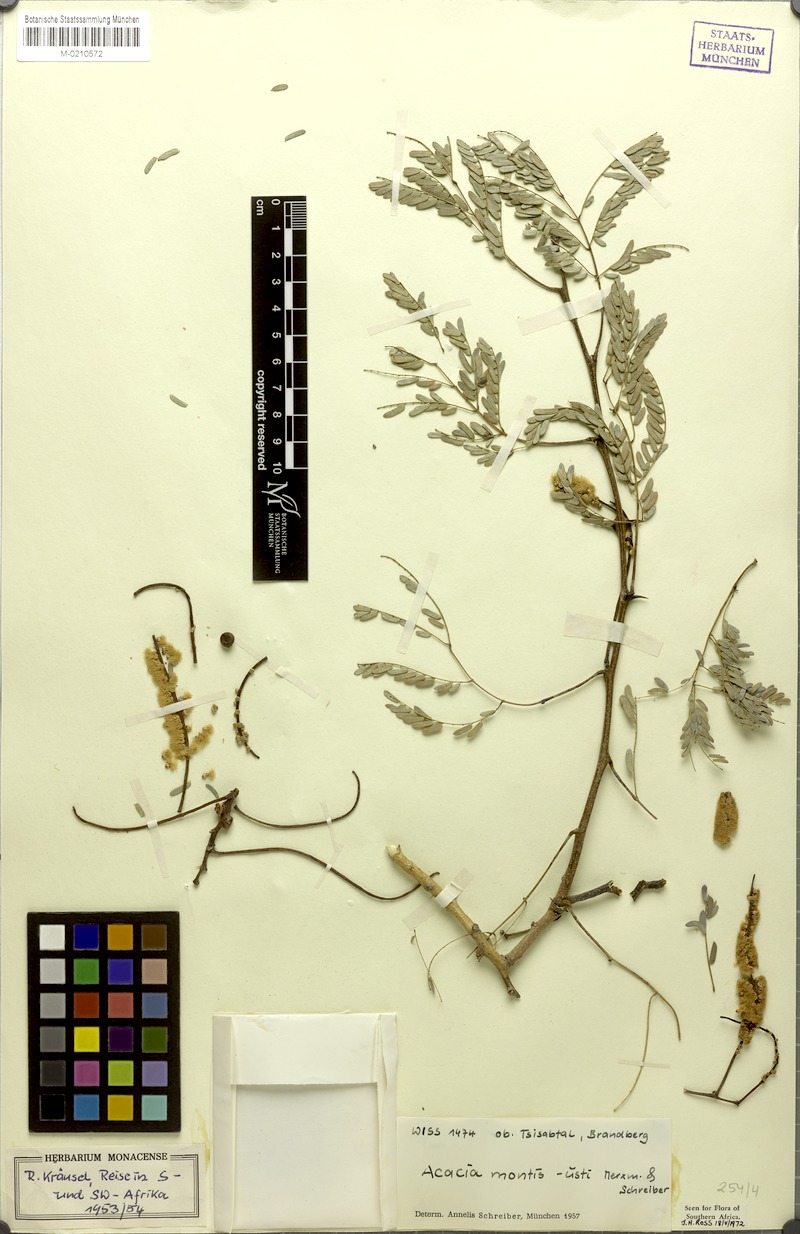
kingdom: Plantae
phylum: Tracheophyta
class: Magnoliopsida
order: Fabales
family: Fabaceae
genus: Senegalia
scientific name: Senegalia montis-usti
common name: Brandberg acacia
